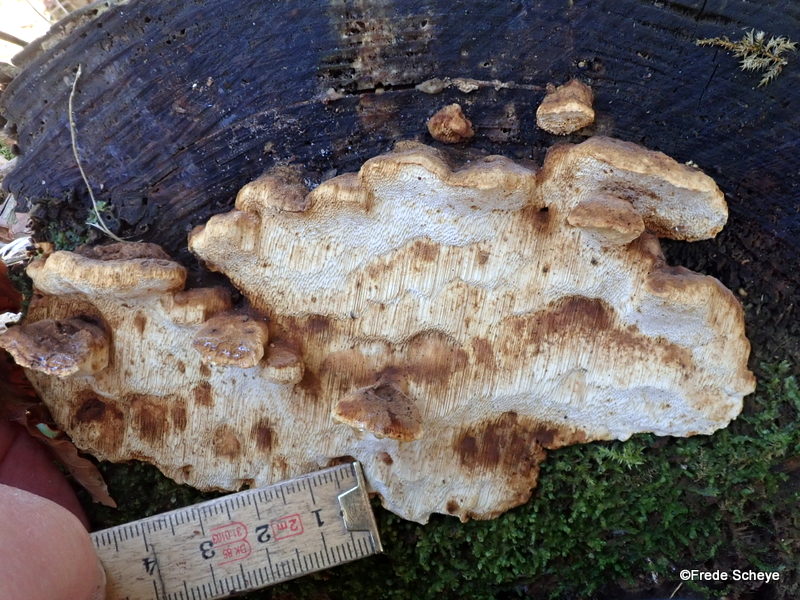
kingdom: Fungi
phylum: Basidiomycota
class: Agaricomycetes
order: Polyporales
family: Fomitopsidaceae
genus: Neoantrodia
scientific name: Neoantrodia serialis
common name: række-sejporesvamp
